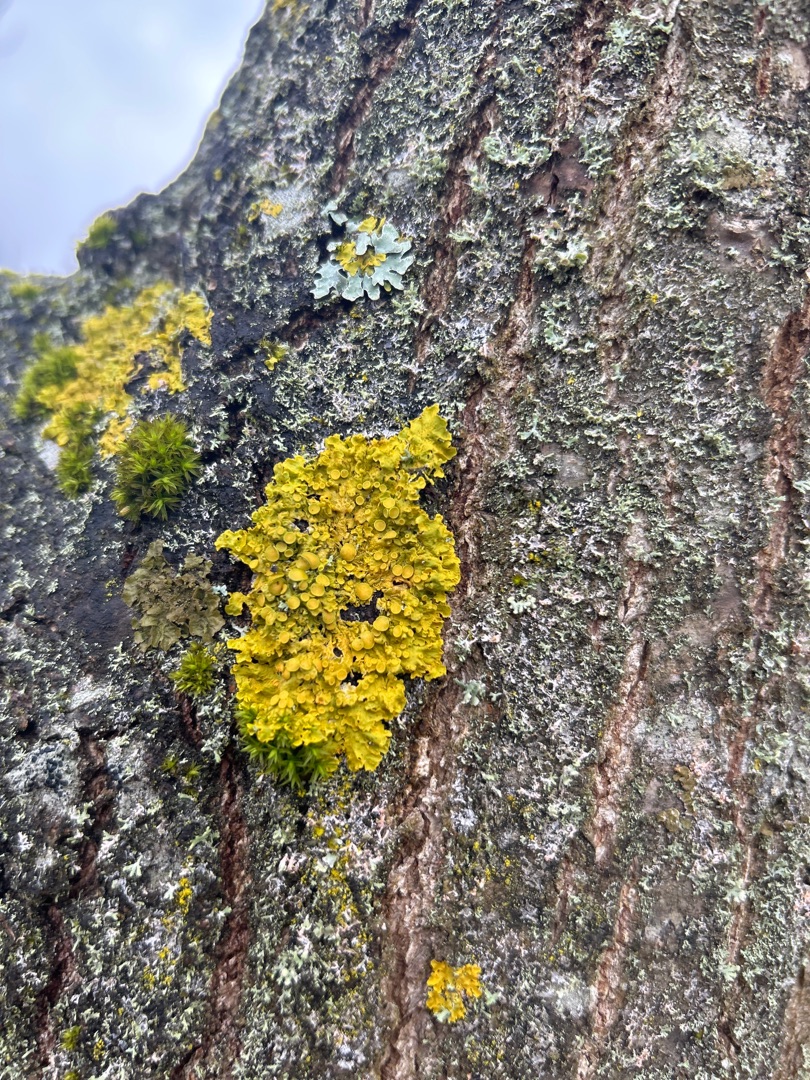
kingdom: Fungi
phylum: Ascomycota
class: Lecanoromycetes
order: Teloschistales
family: Teloschistaceae
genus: Xanthoria
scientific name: Xanthoria parietina
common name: Almindelig væggelav
